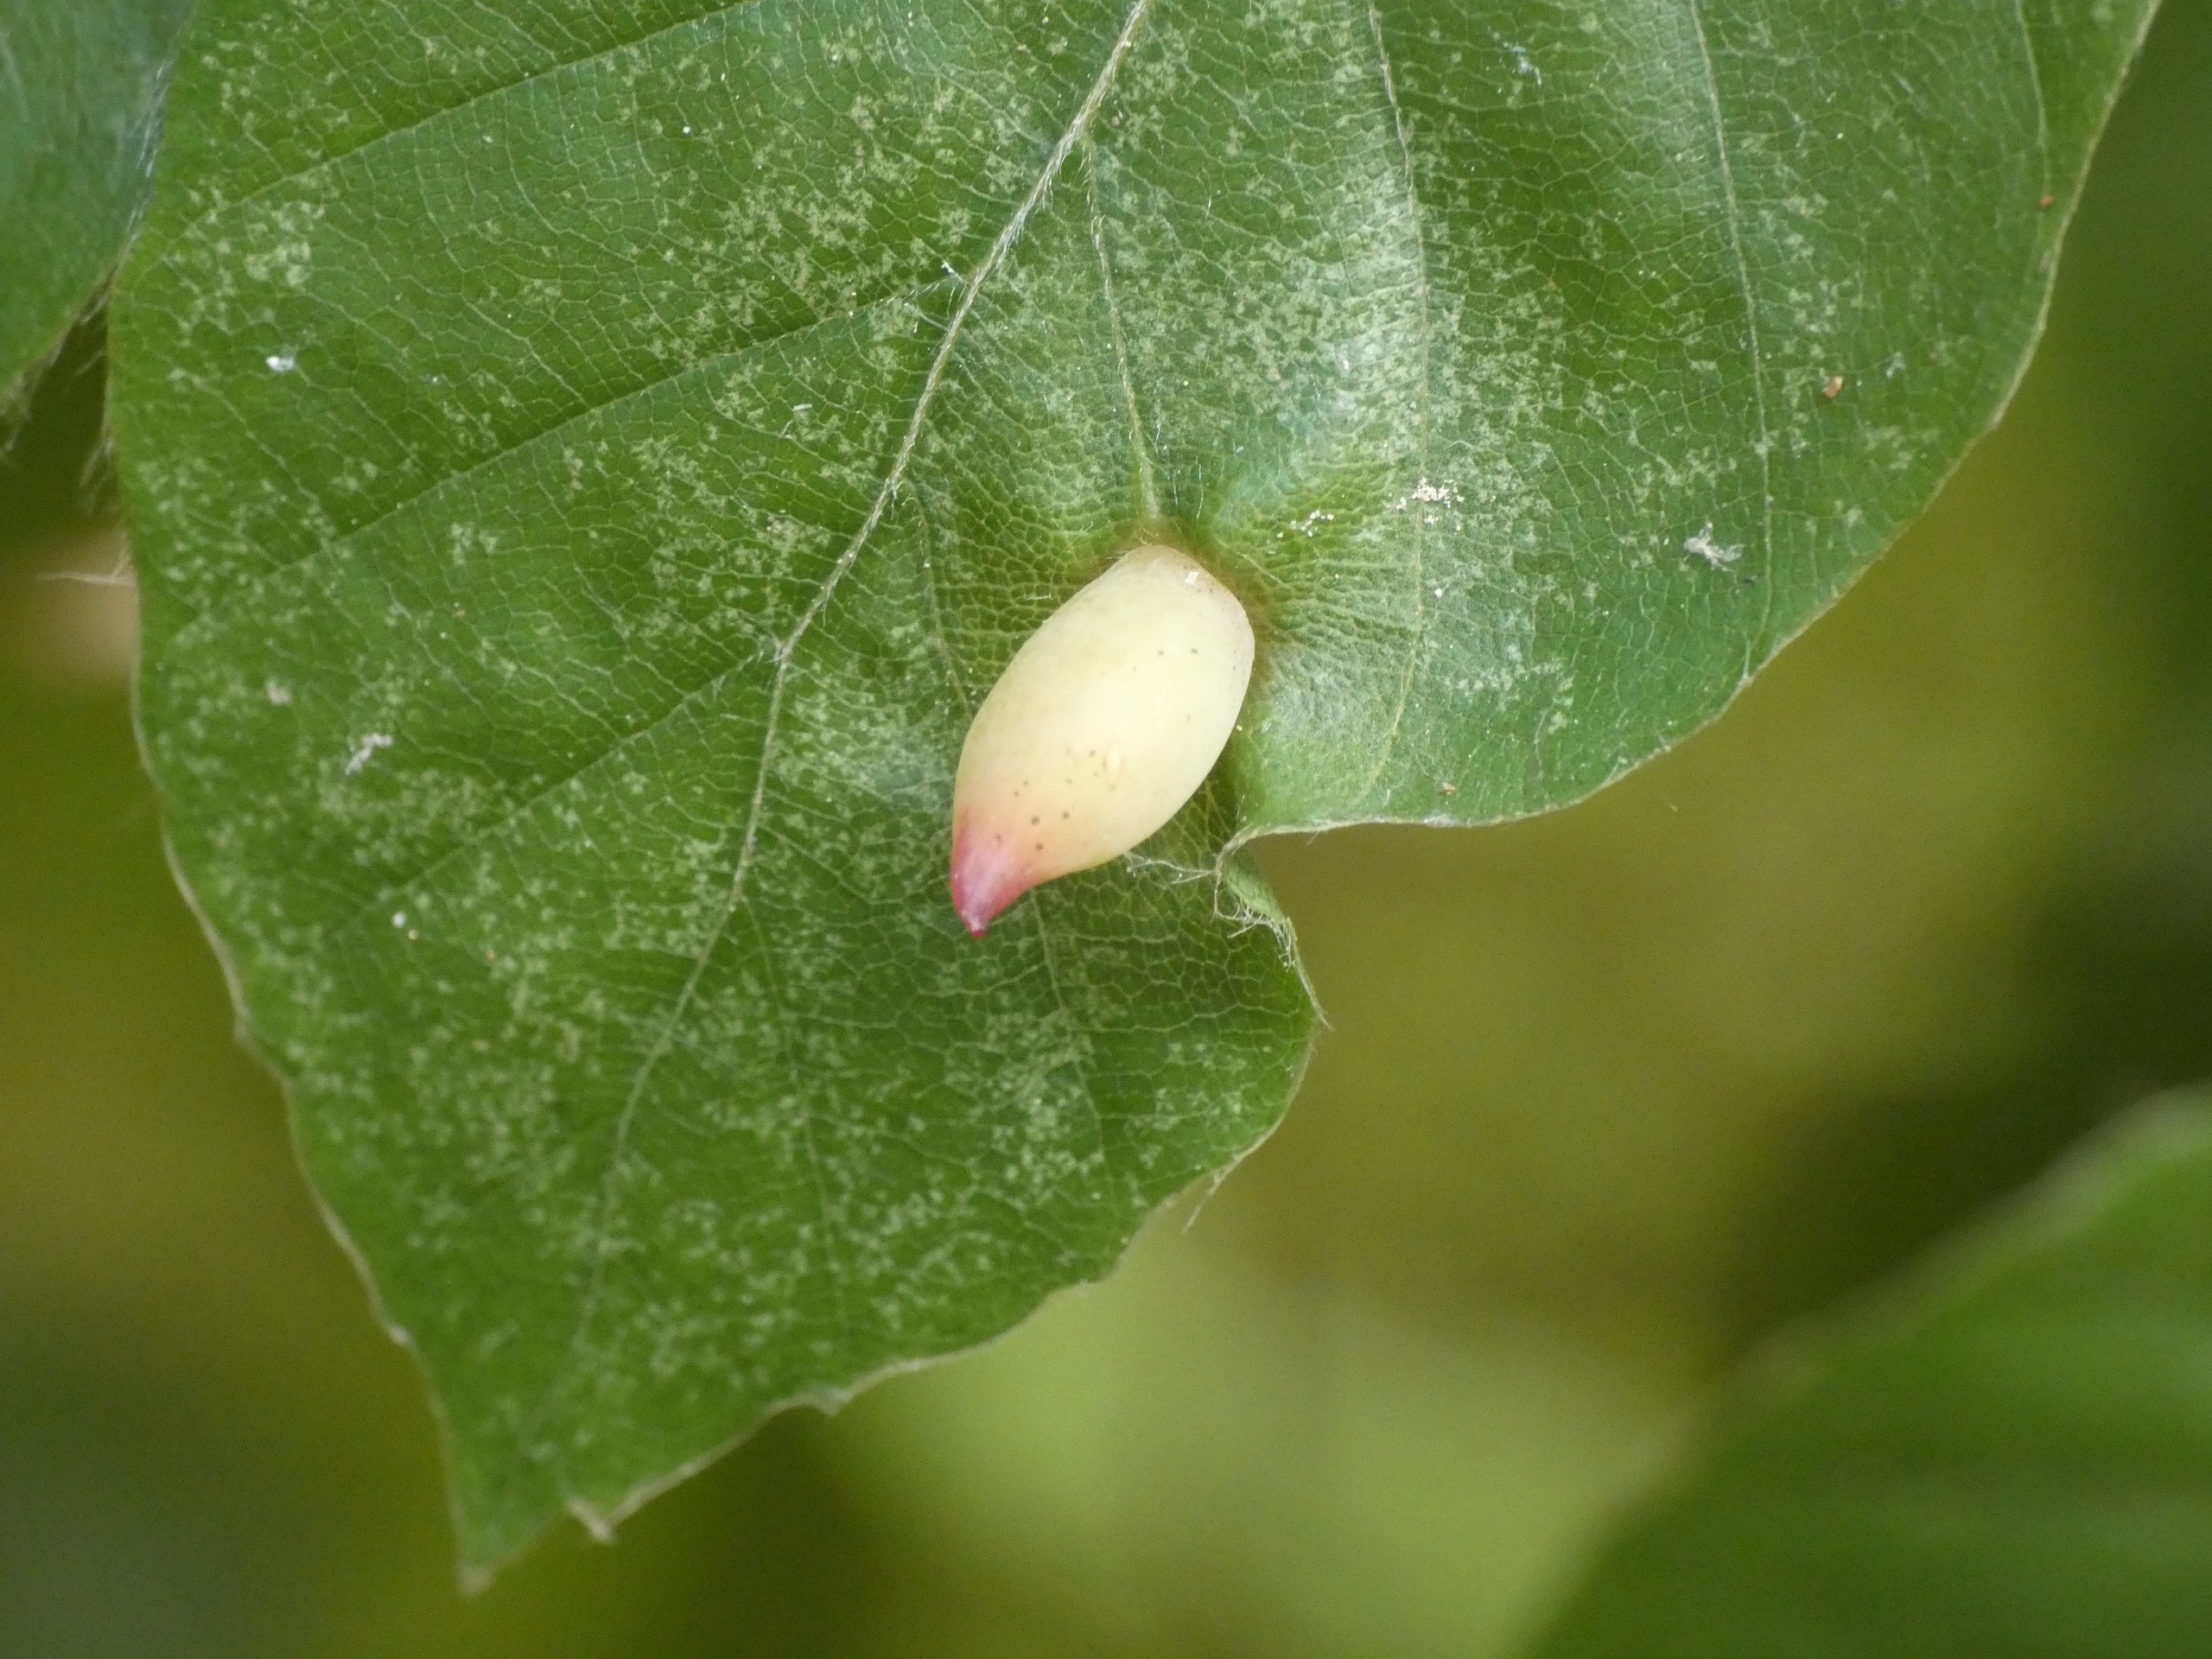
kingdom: Animalia
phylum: Arthropoda
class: Insecta
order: Diptera
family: Cecidomyiidae
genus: Mikiola
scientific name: Mikiola fagi
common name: Bøgegalmyg
